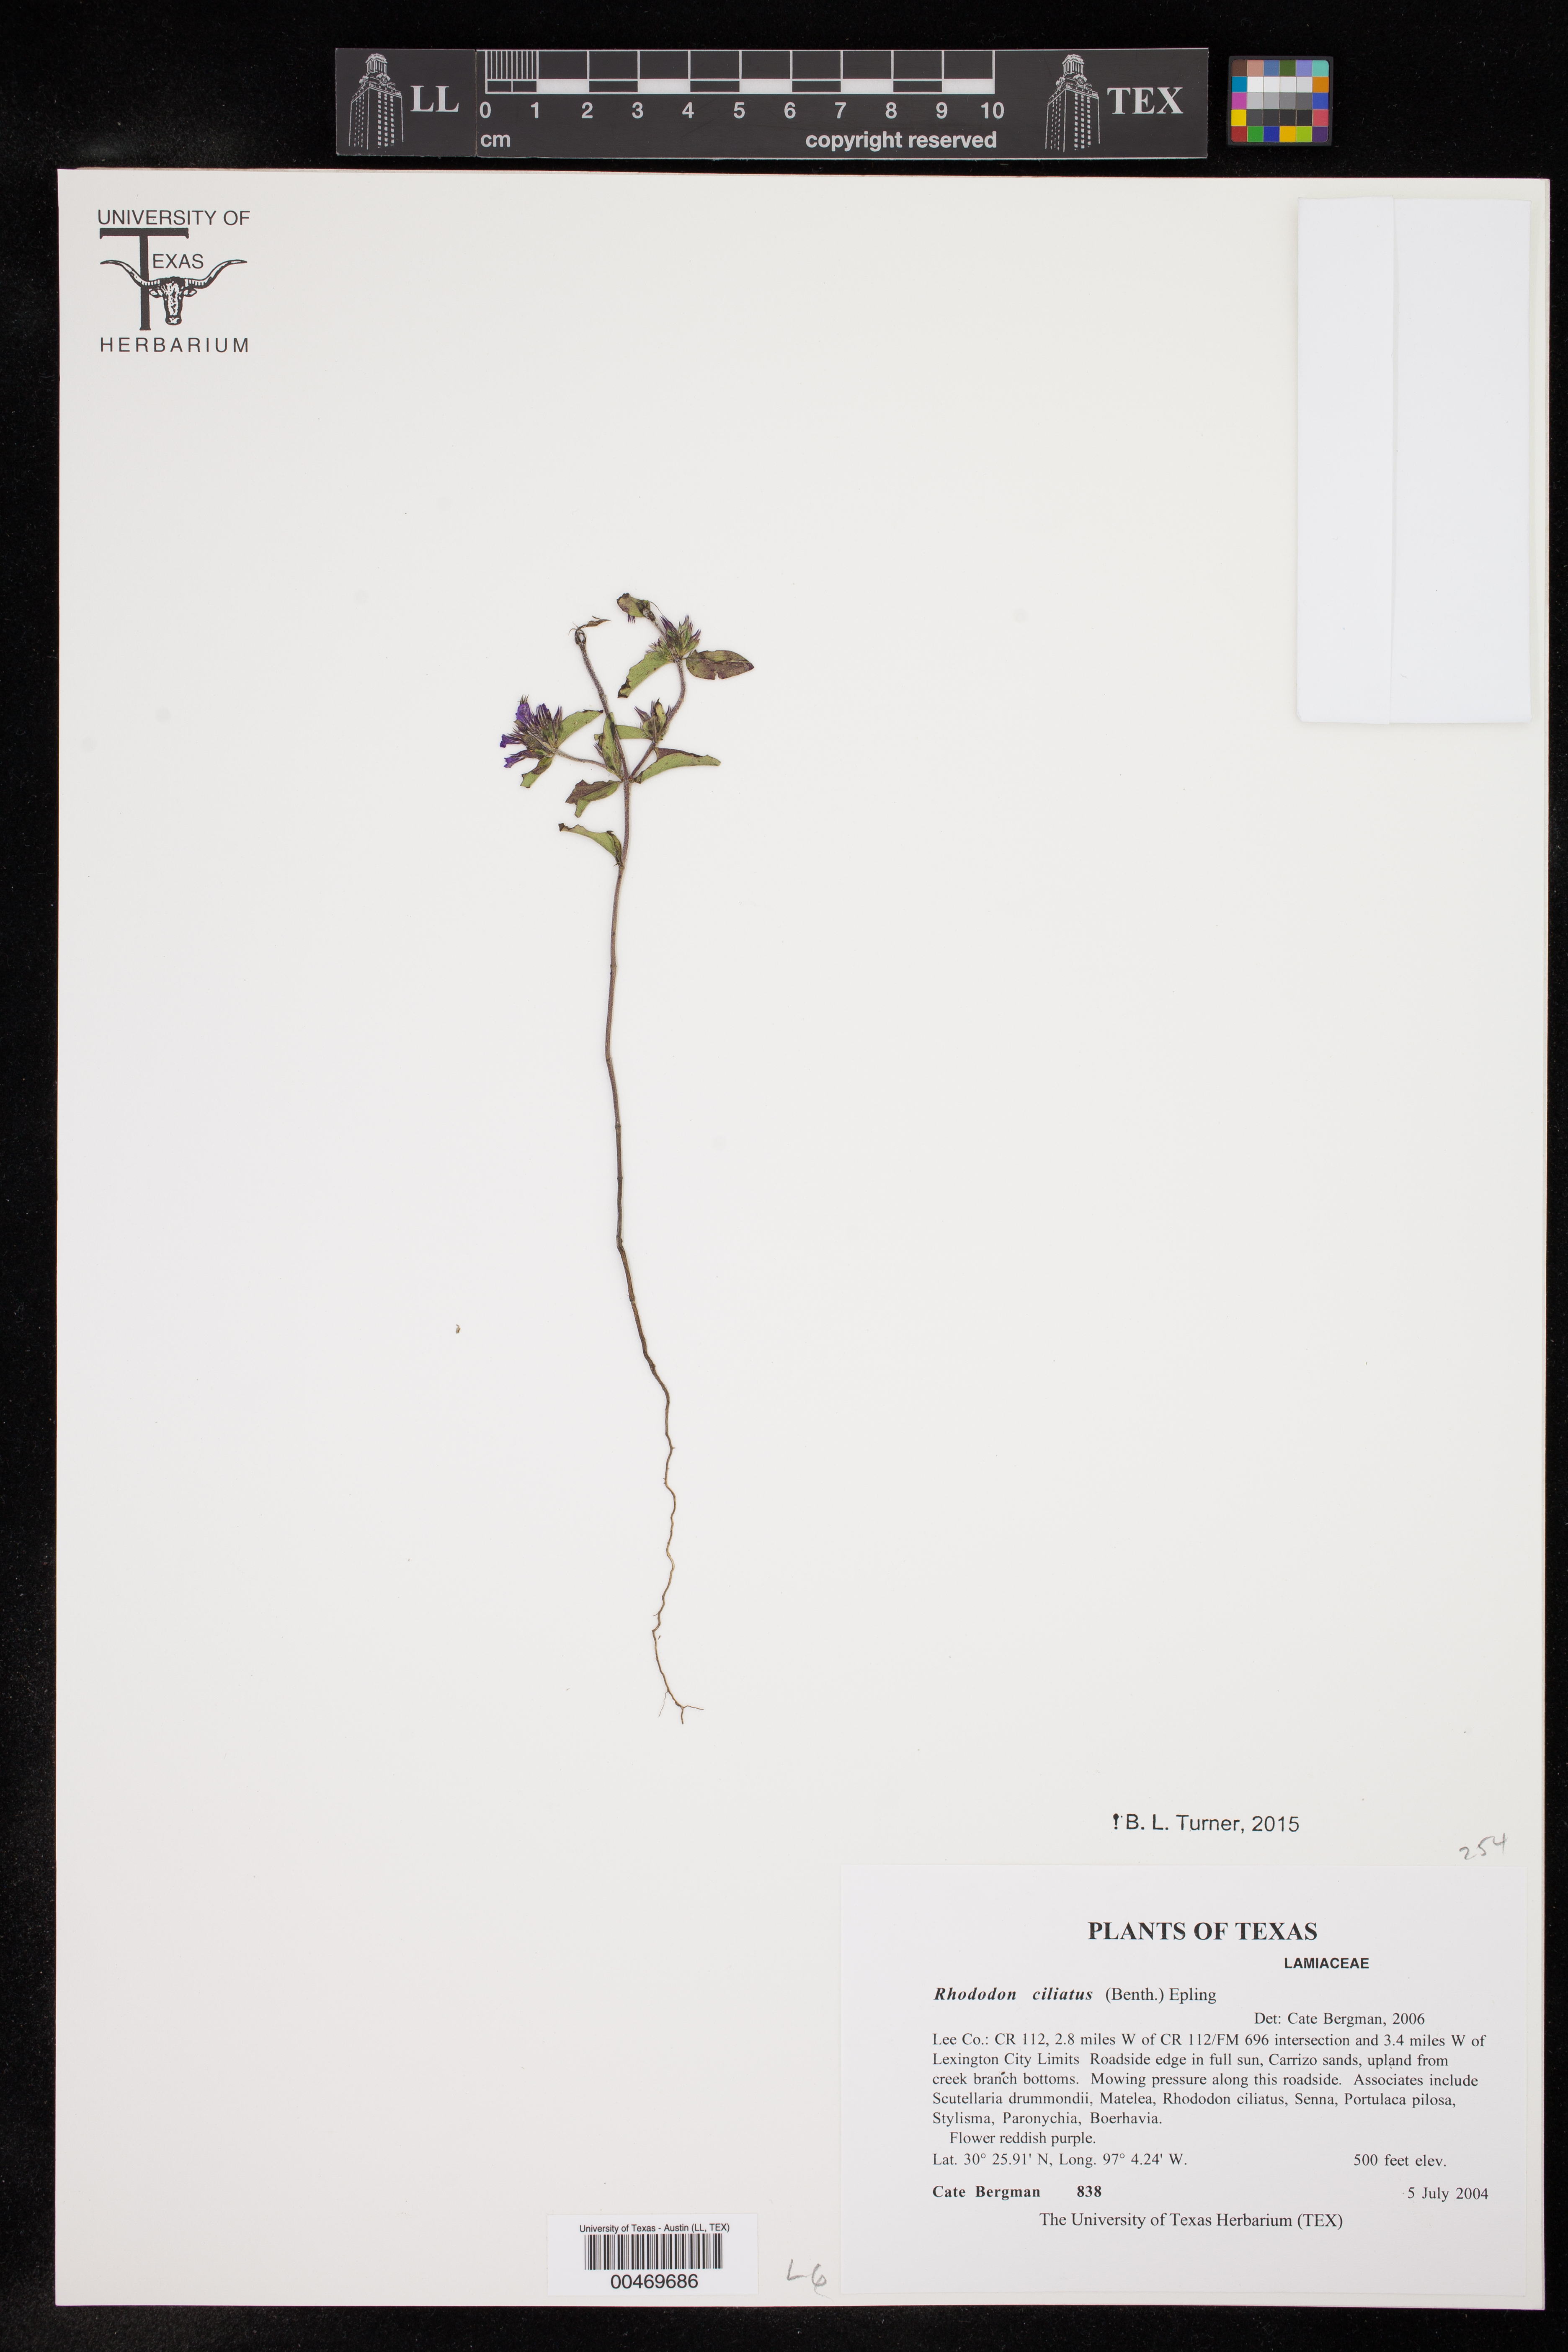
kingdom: Plantae
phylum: Tracheophyta
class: Magnoliopsida
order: Lamiales
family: Lamiaceae
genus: Rhododon
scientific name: Rhododon ciliatus
